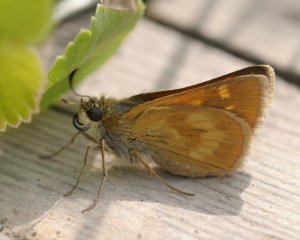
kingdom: Animalia
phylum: Arthropoda
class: Insecta
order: Lepidoptera
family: Hesperiidae
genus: Polites
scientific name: Polites
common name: Long Dash Skipper
